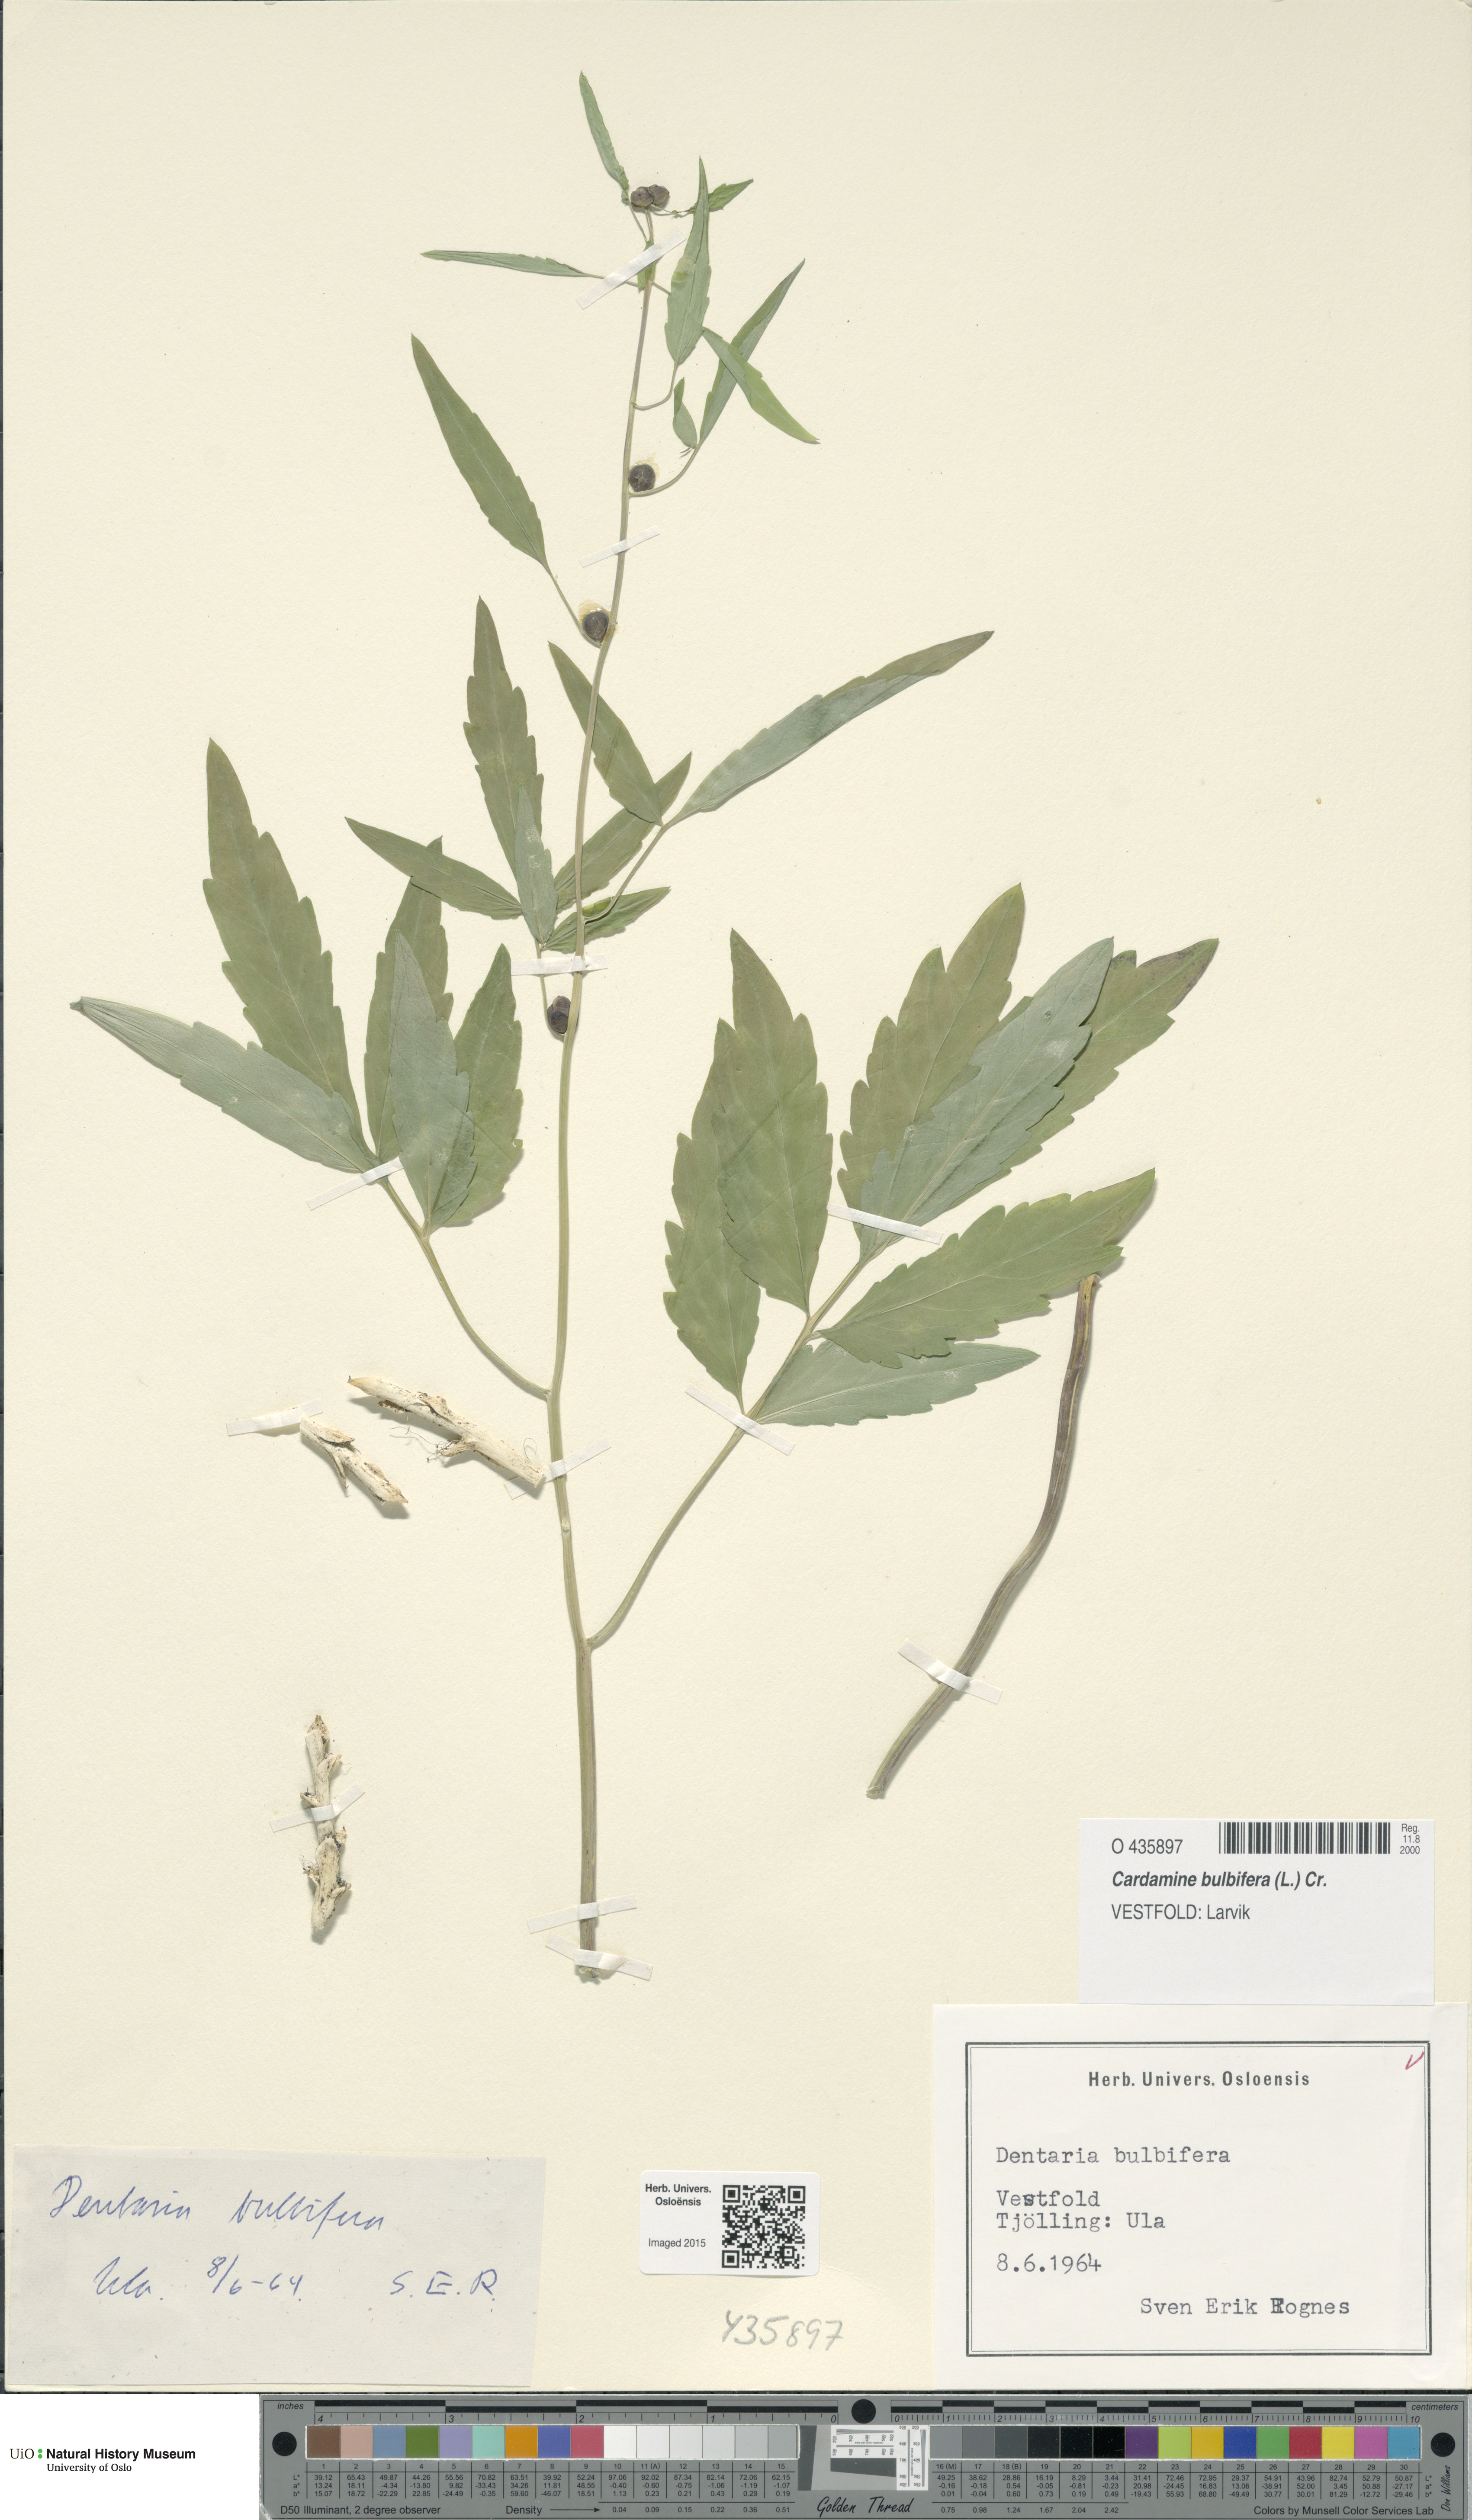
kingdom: Plantae
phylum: Tracheophyta
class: Magnoliopsida
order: Brassicales
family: Brassicaceae
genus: Cardamine
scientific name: Cardamine bulbifera
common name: Coralroot bittercress
